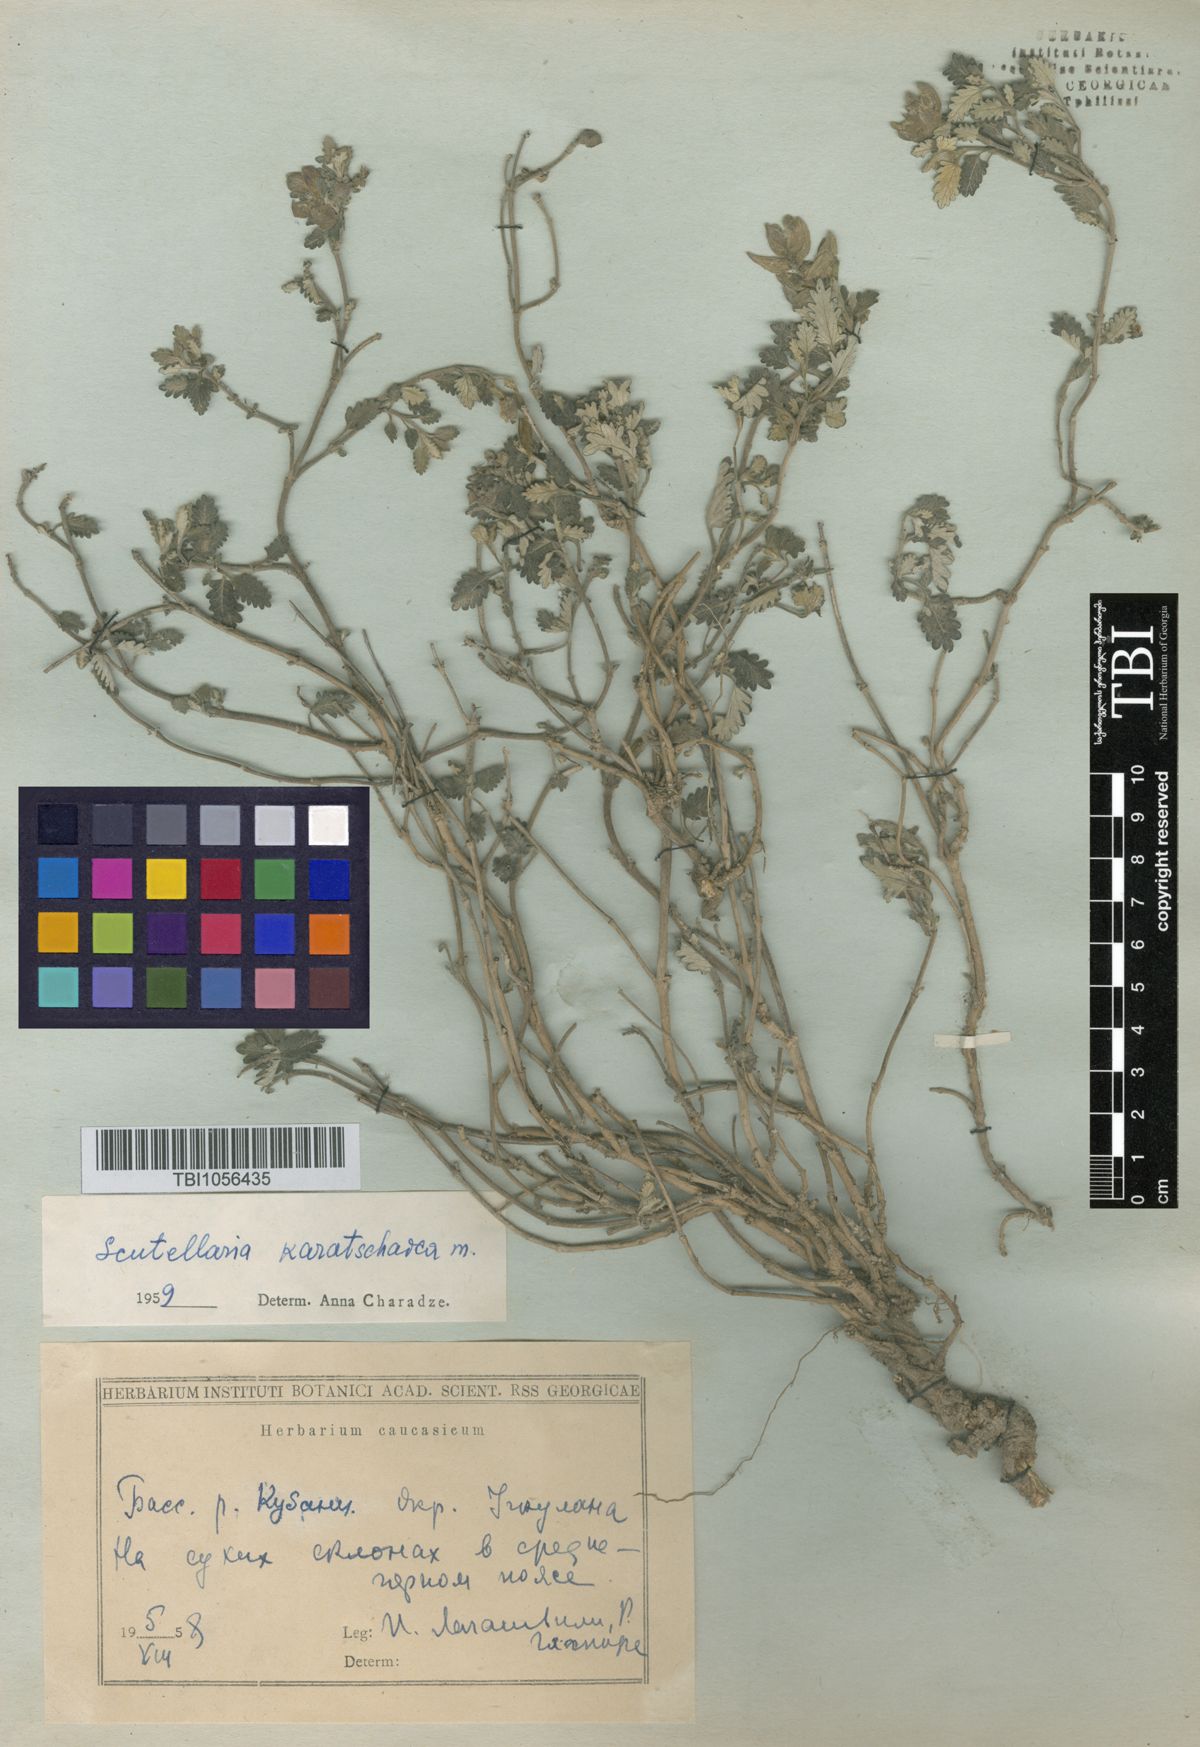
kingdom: Plantae
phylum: Tracheophyta
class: Magnoliopsida
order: Lamiales
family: Lamiaceae
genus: Scutellaria
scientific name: Scutellaria orientalis
